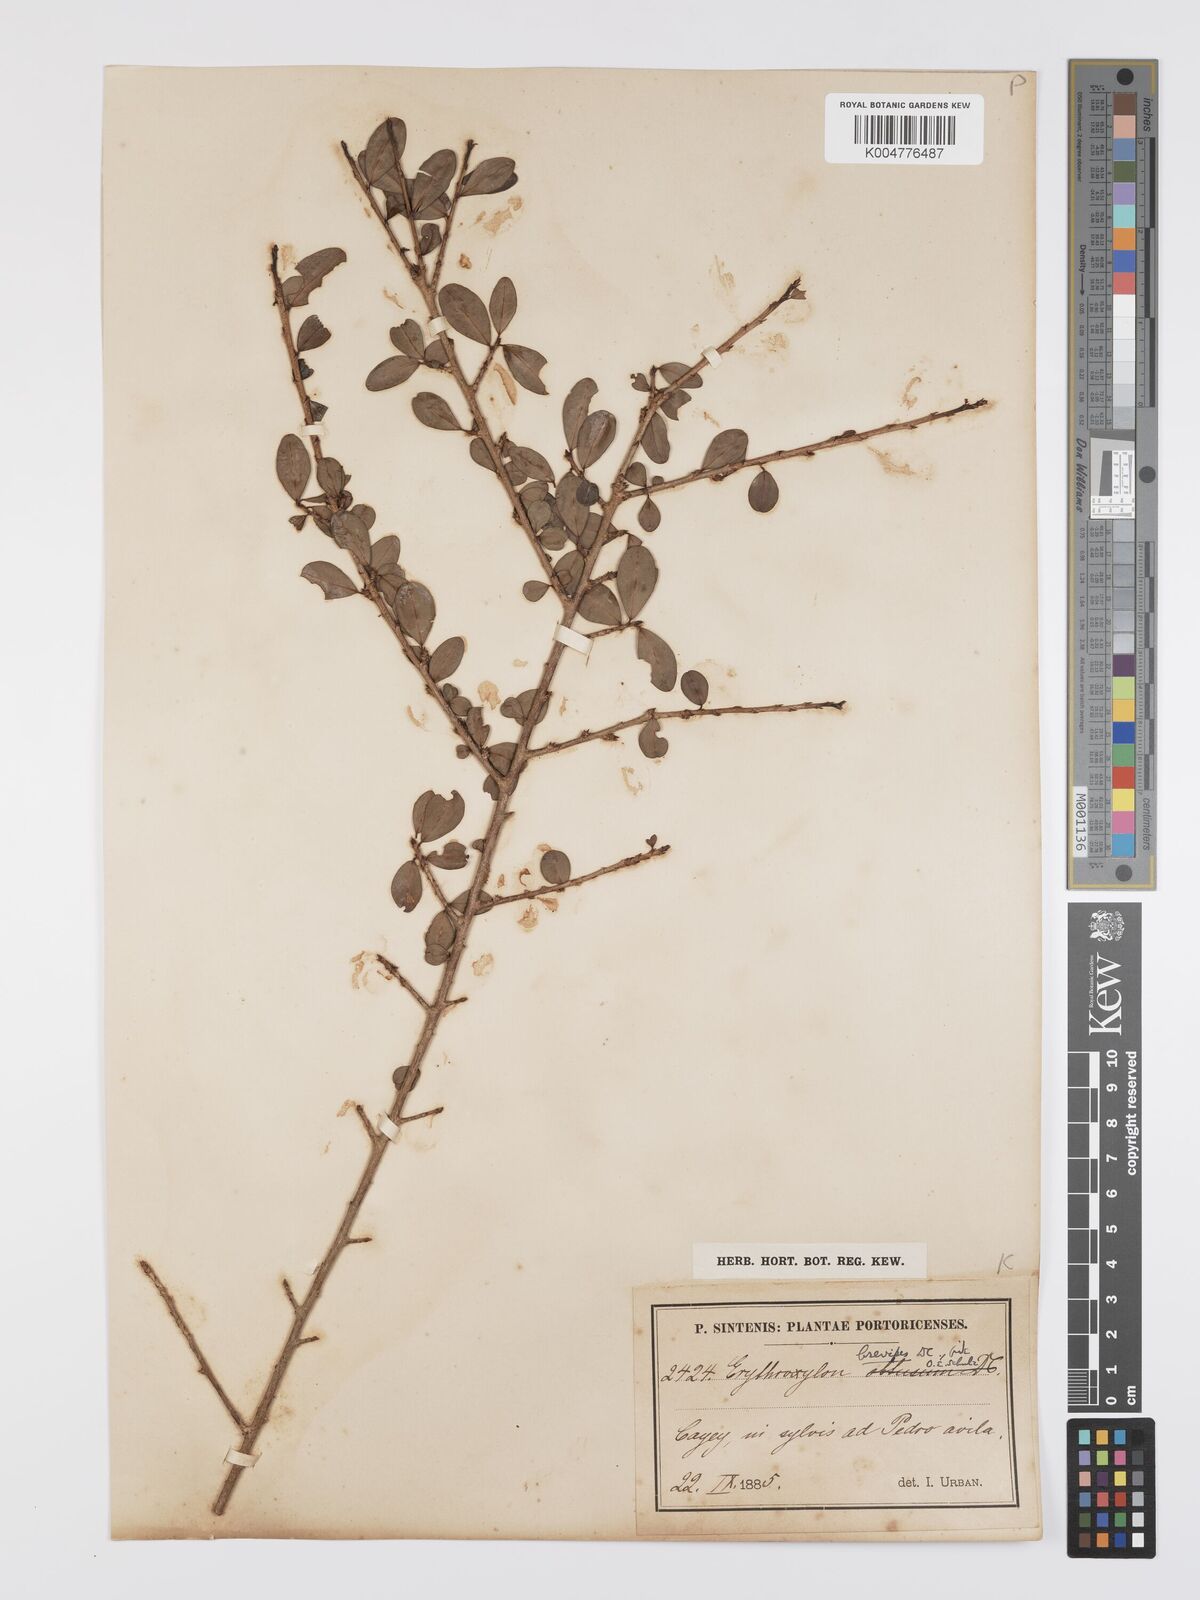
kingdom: Plantae
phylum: Tracheophyta
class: Magnoliopsida
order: Malpighiales
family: Erythroxylaceae
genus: Erythroxylum
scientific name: Erythroxylum brevipes
